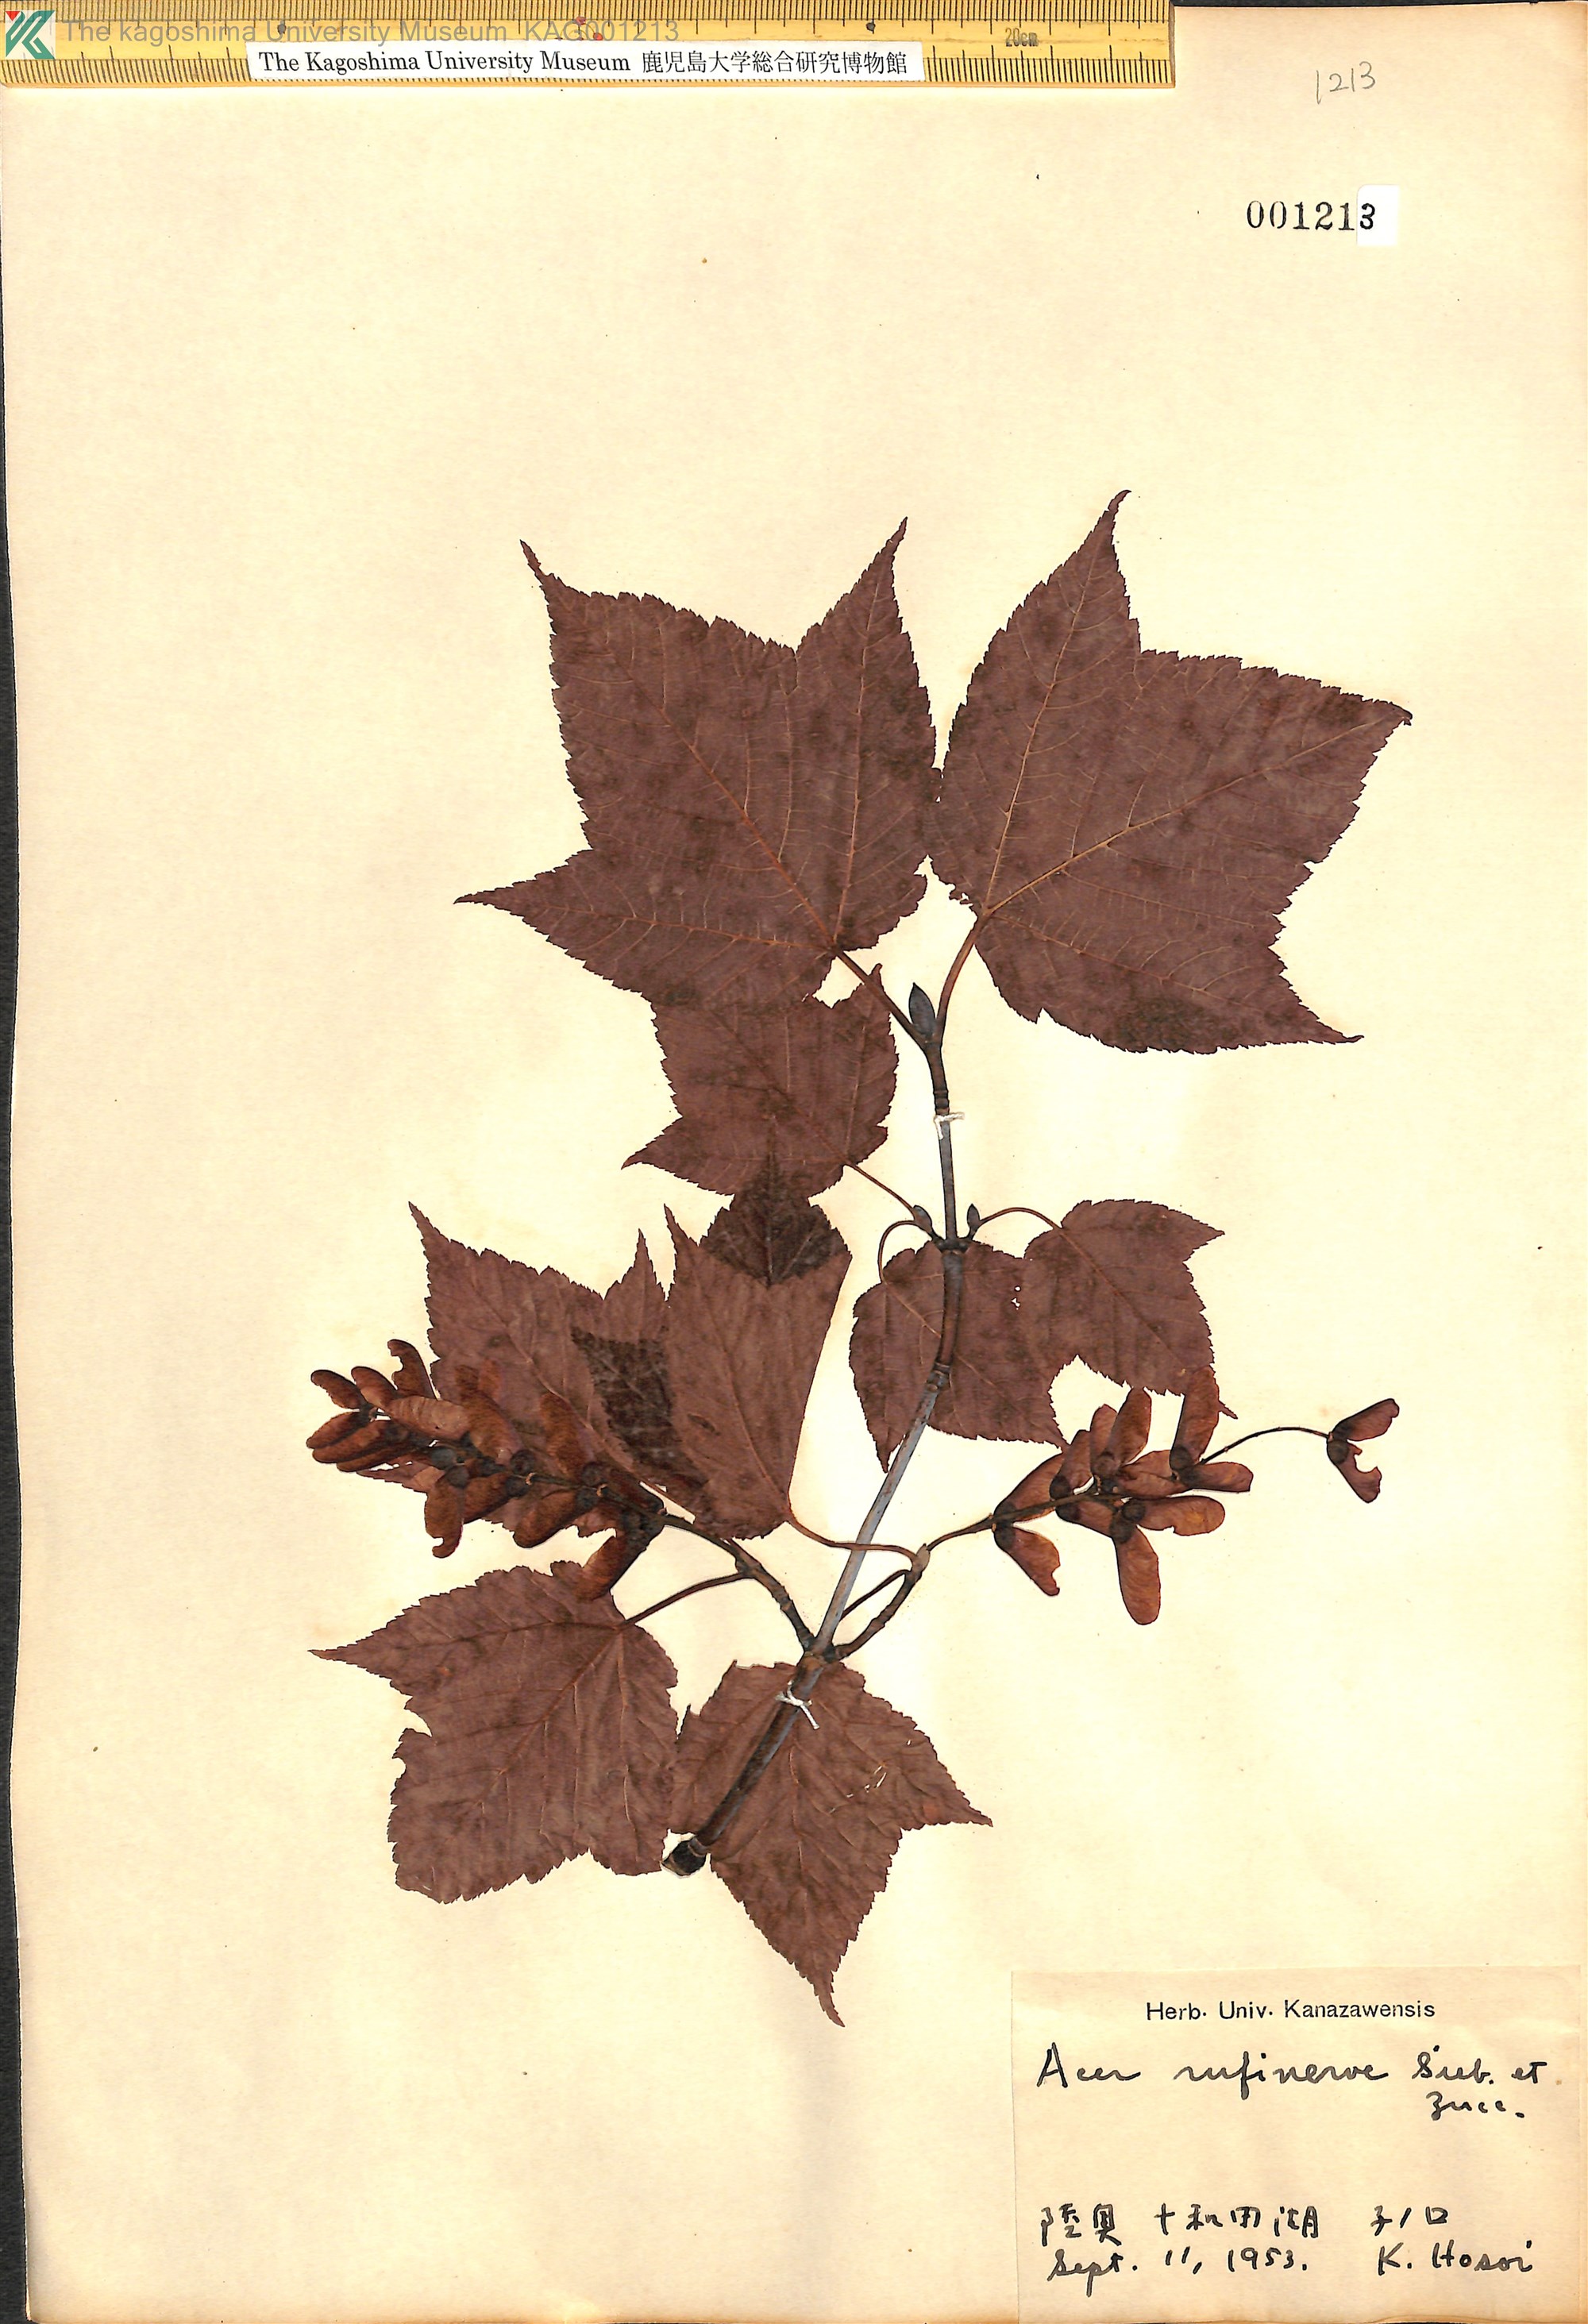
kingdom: Plantae
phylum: Tracheophyta
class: Magnoliopsida
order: Sapindales
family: Sapindaceae
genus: Acer
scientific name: Acer rufinerve
